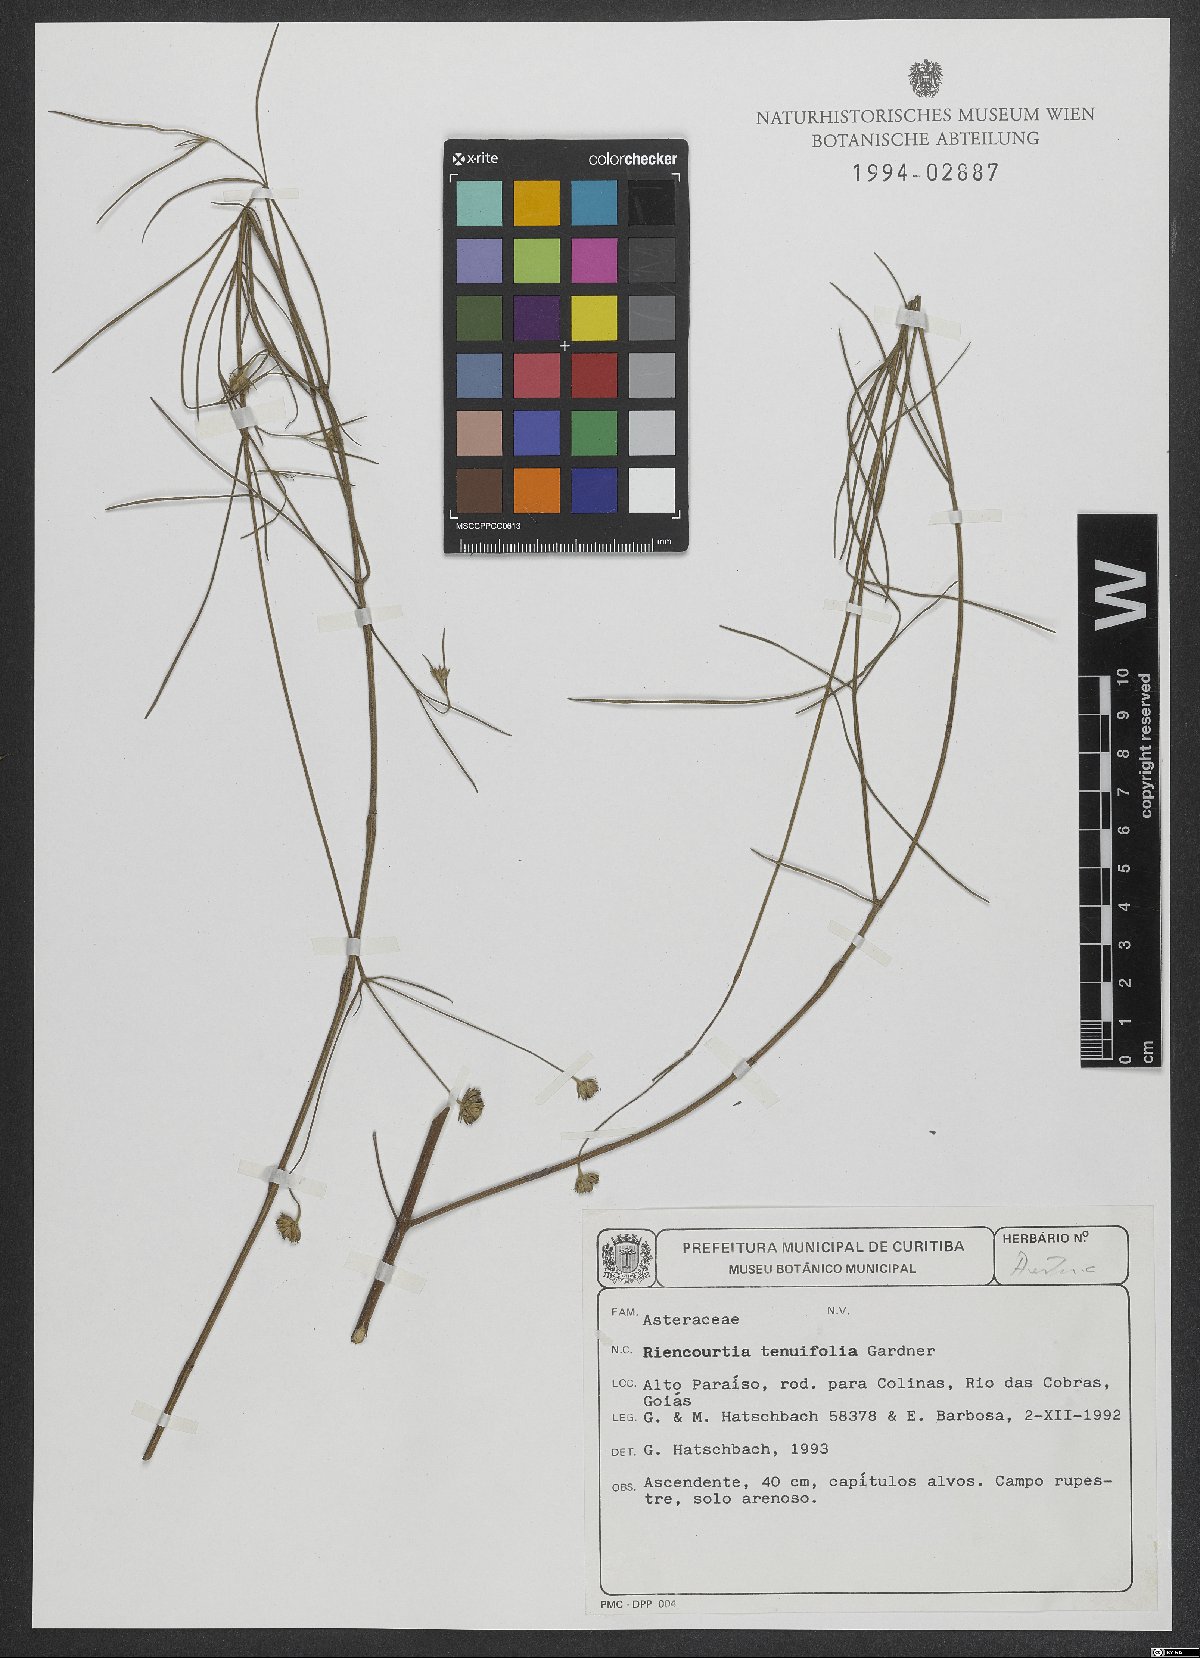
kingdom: Plantae
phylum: Tracheophyta
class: Magnoliopsida
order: Asterales
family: Asteraceae
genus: Riencourtia
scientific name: Riencourtia tenuifolia
